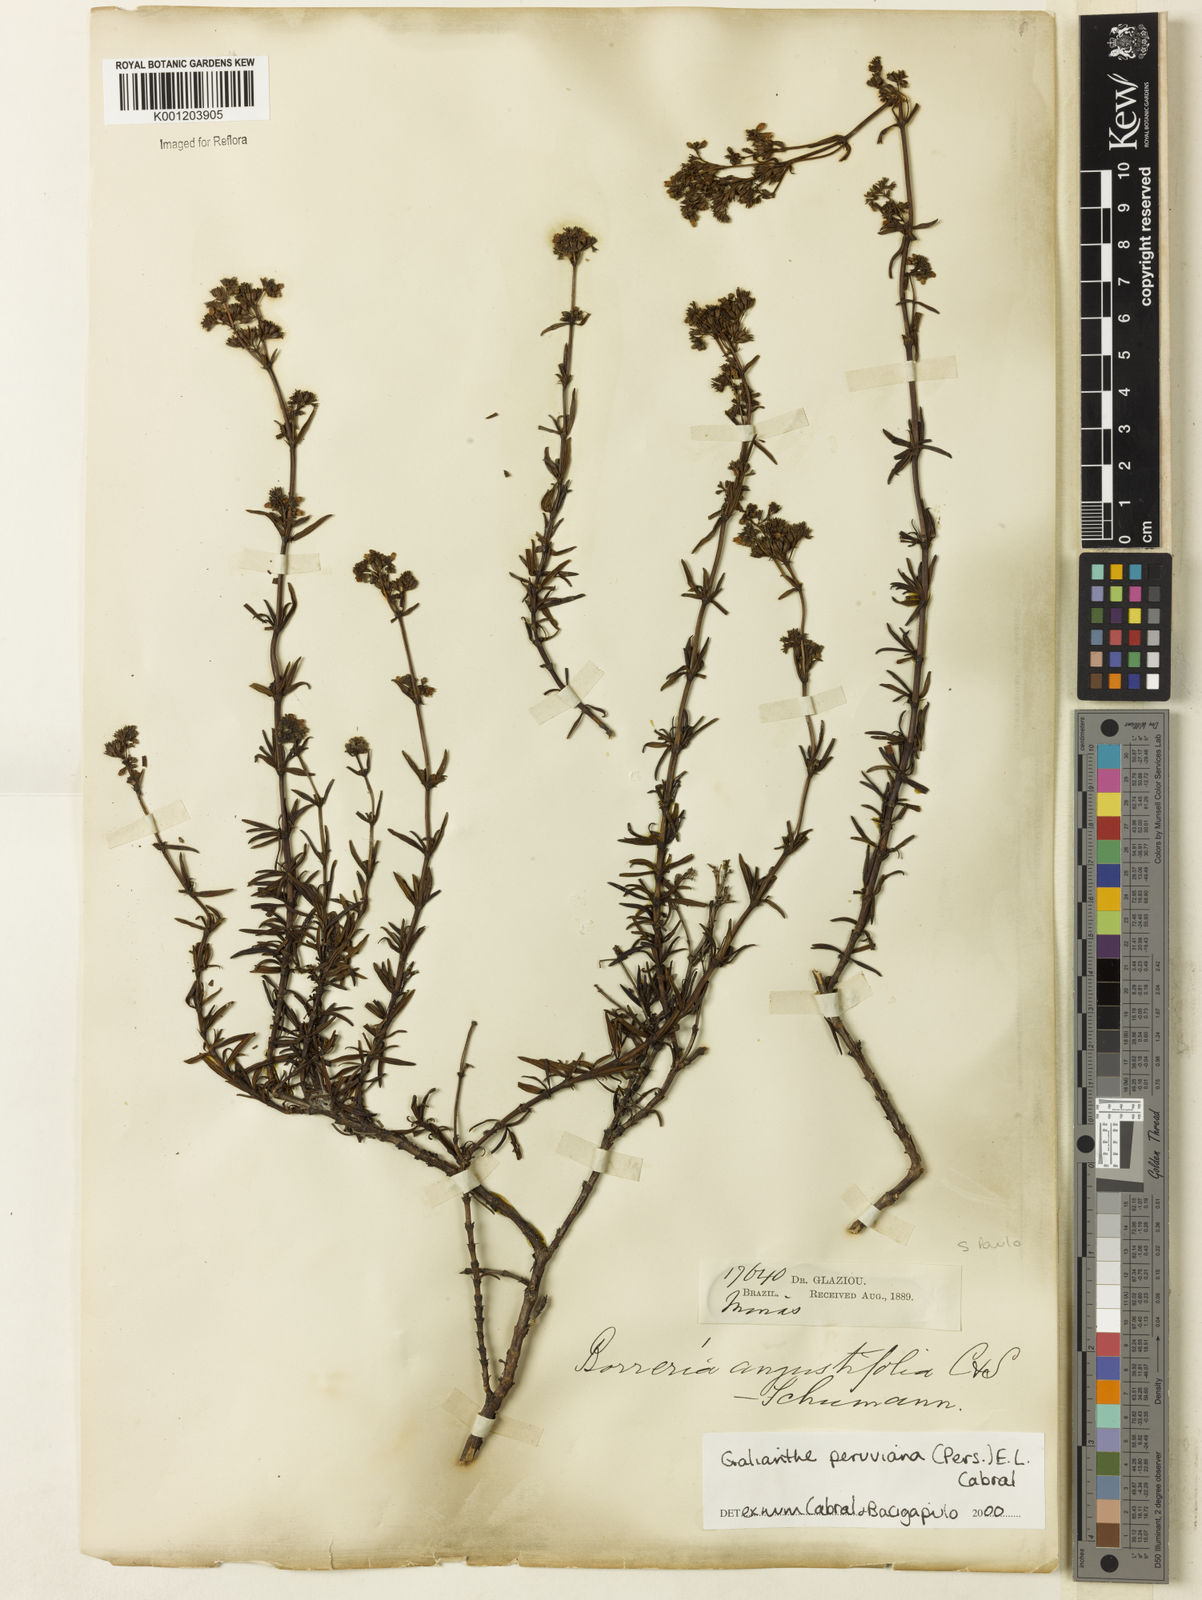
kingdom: Plantae
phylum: Tracheophyta
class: Magnoliopsida
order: Gentianales
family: Rubiaceae
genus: Galianthe
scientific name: Galianthe peruviana
